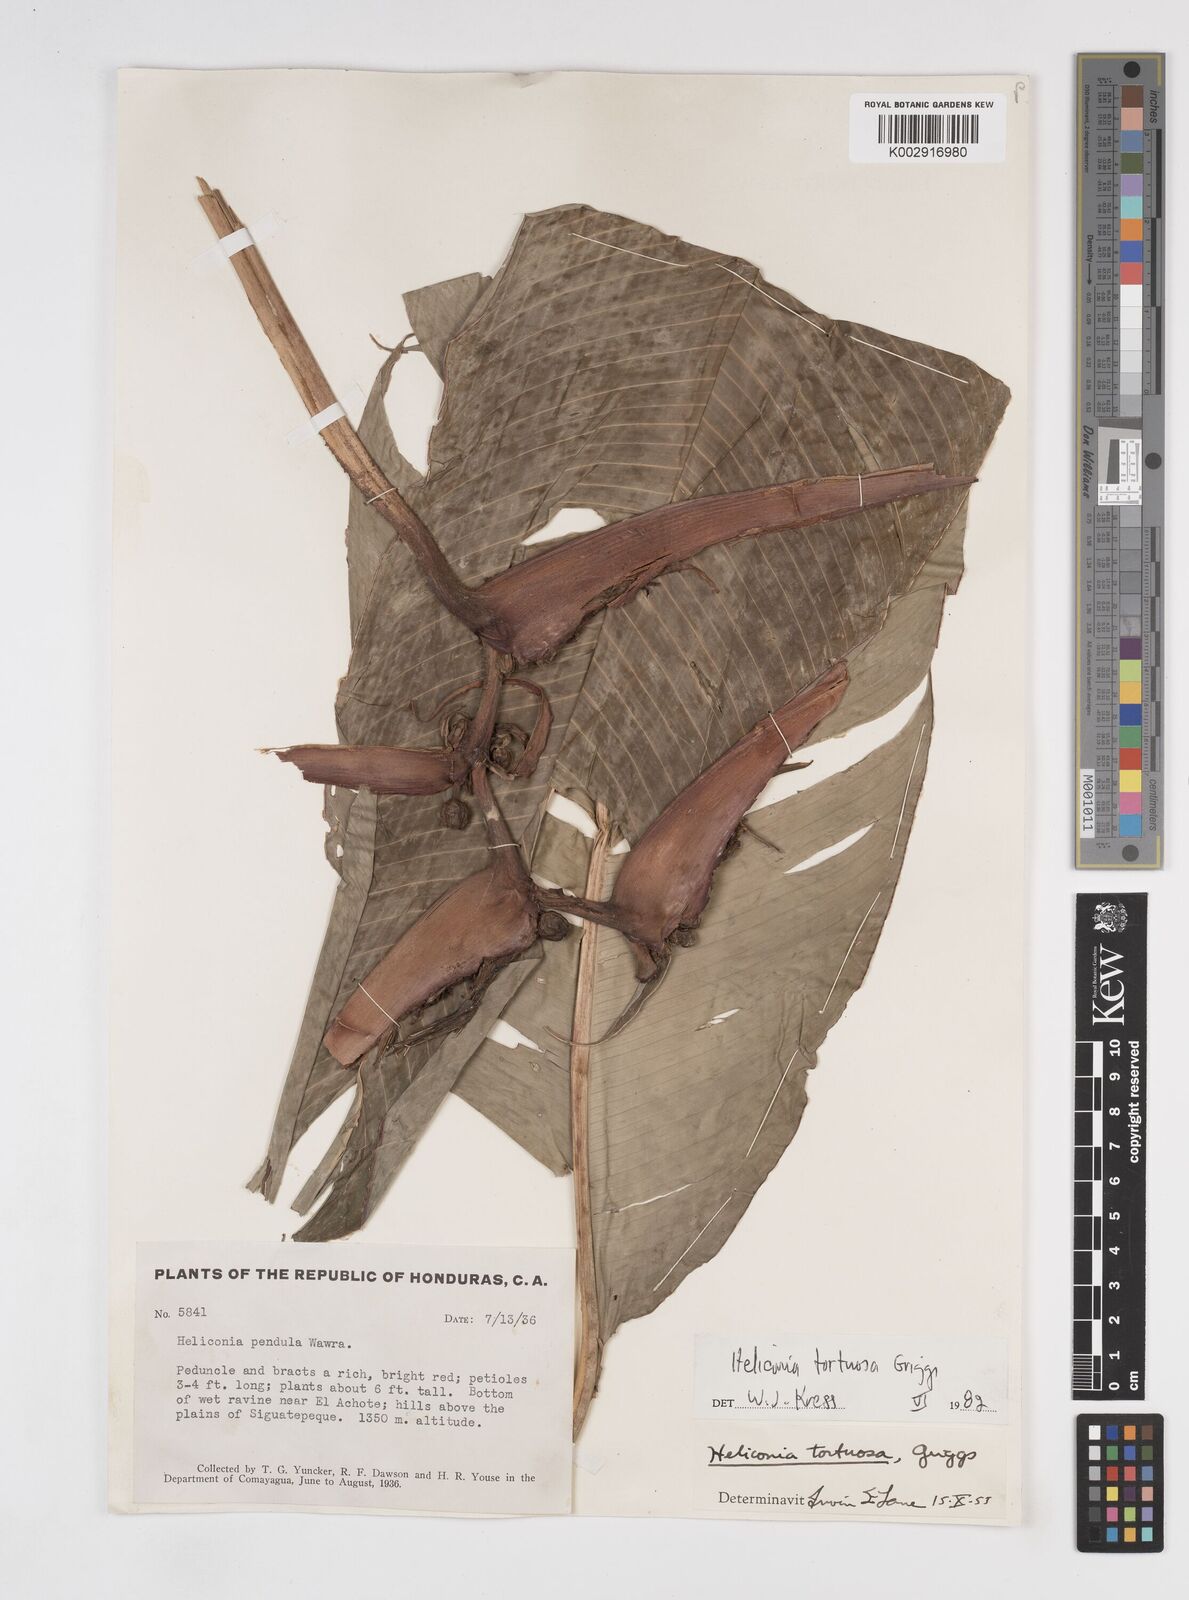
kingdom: Plantae
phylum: Tracheophyta
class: Liliopsida
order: Zingiberales
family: Heliconiaceae
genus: Heliconia
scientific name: Heliconia tortuosa
